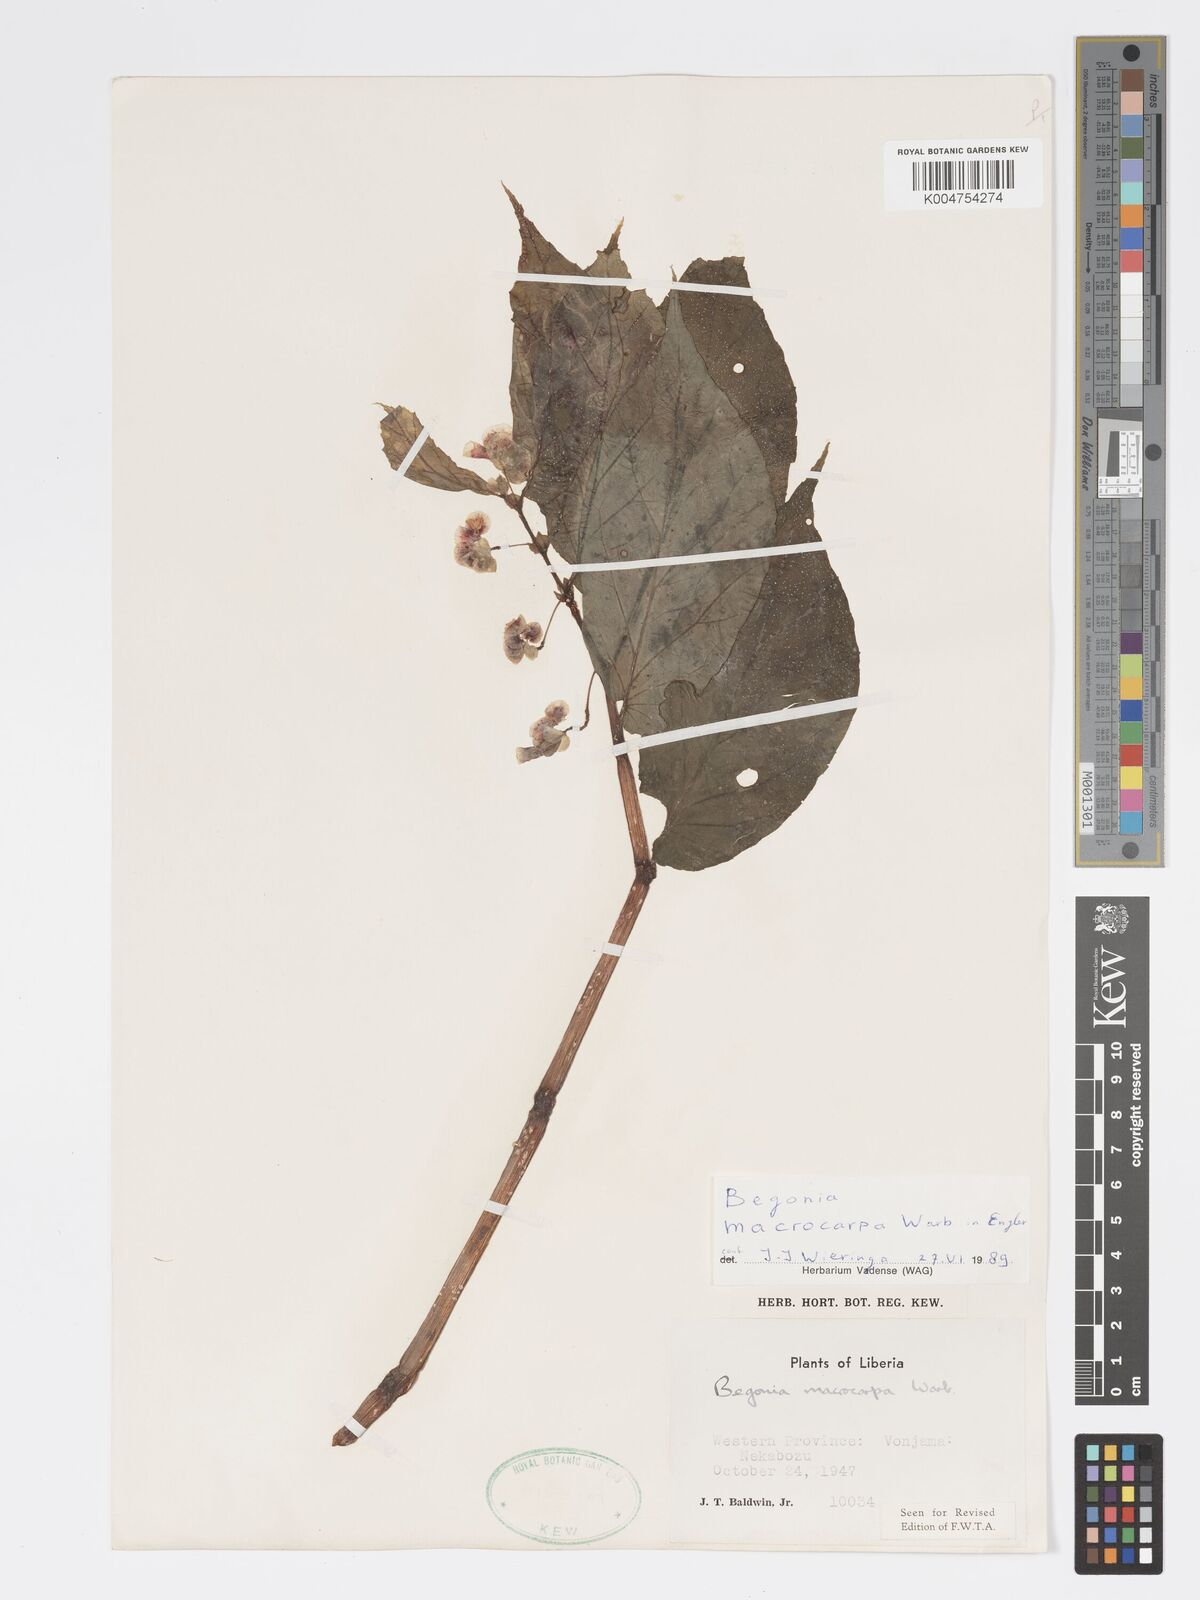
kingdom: Plantae
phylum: Tracheophyta
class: Magnoliopsida
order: Cucurbitales
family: Begoniaceae
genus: Begonia
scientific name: Begonia macrocarpa
